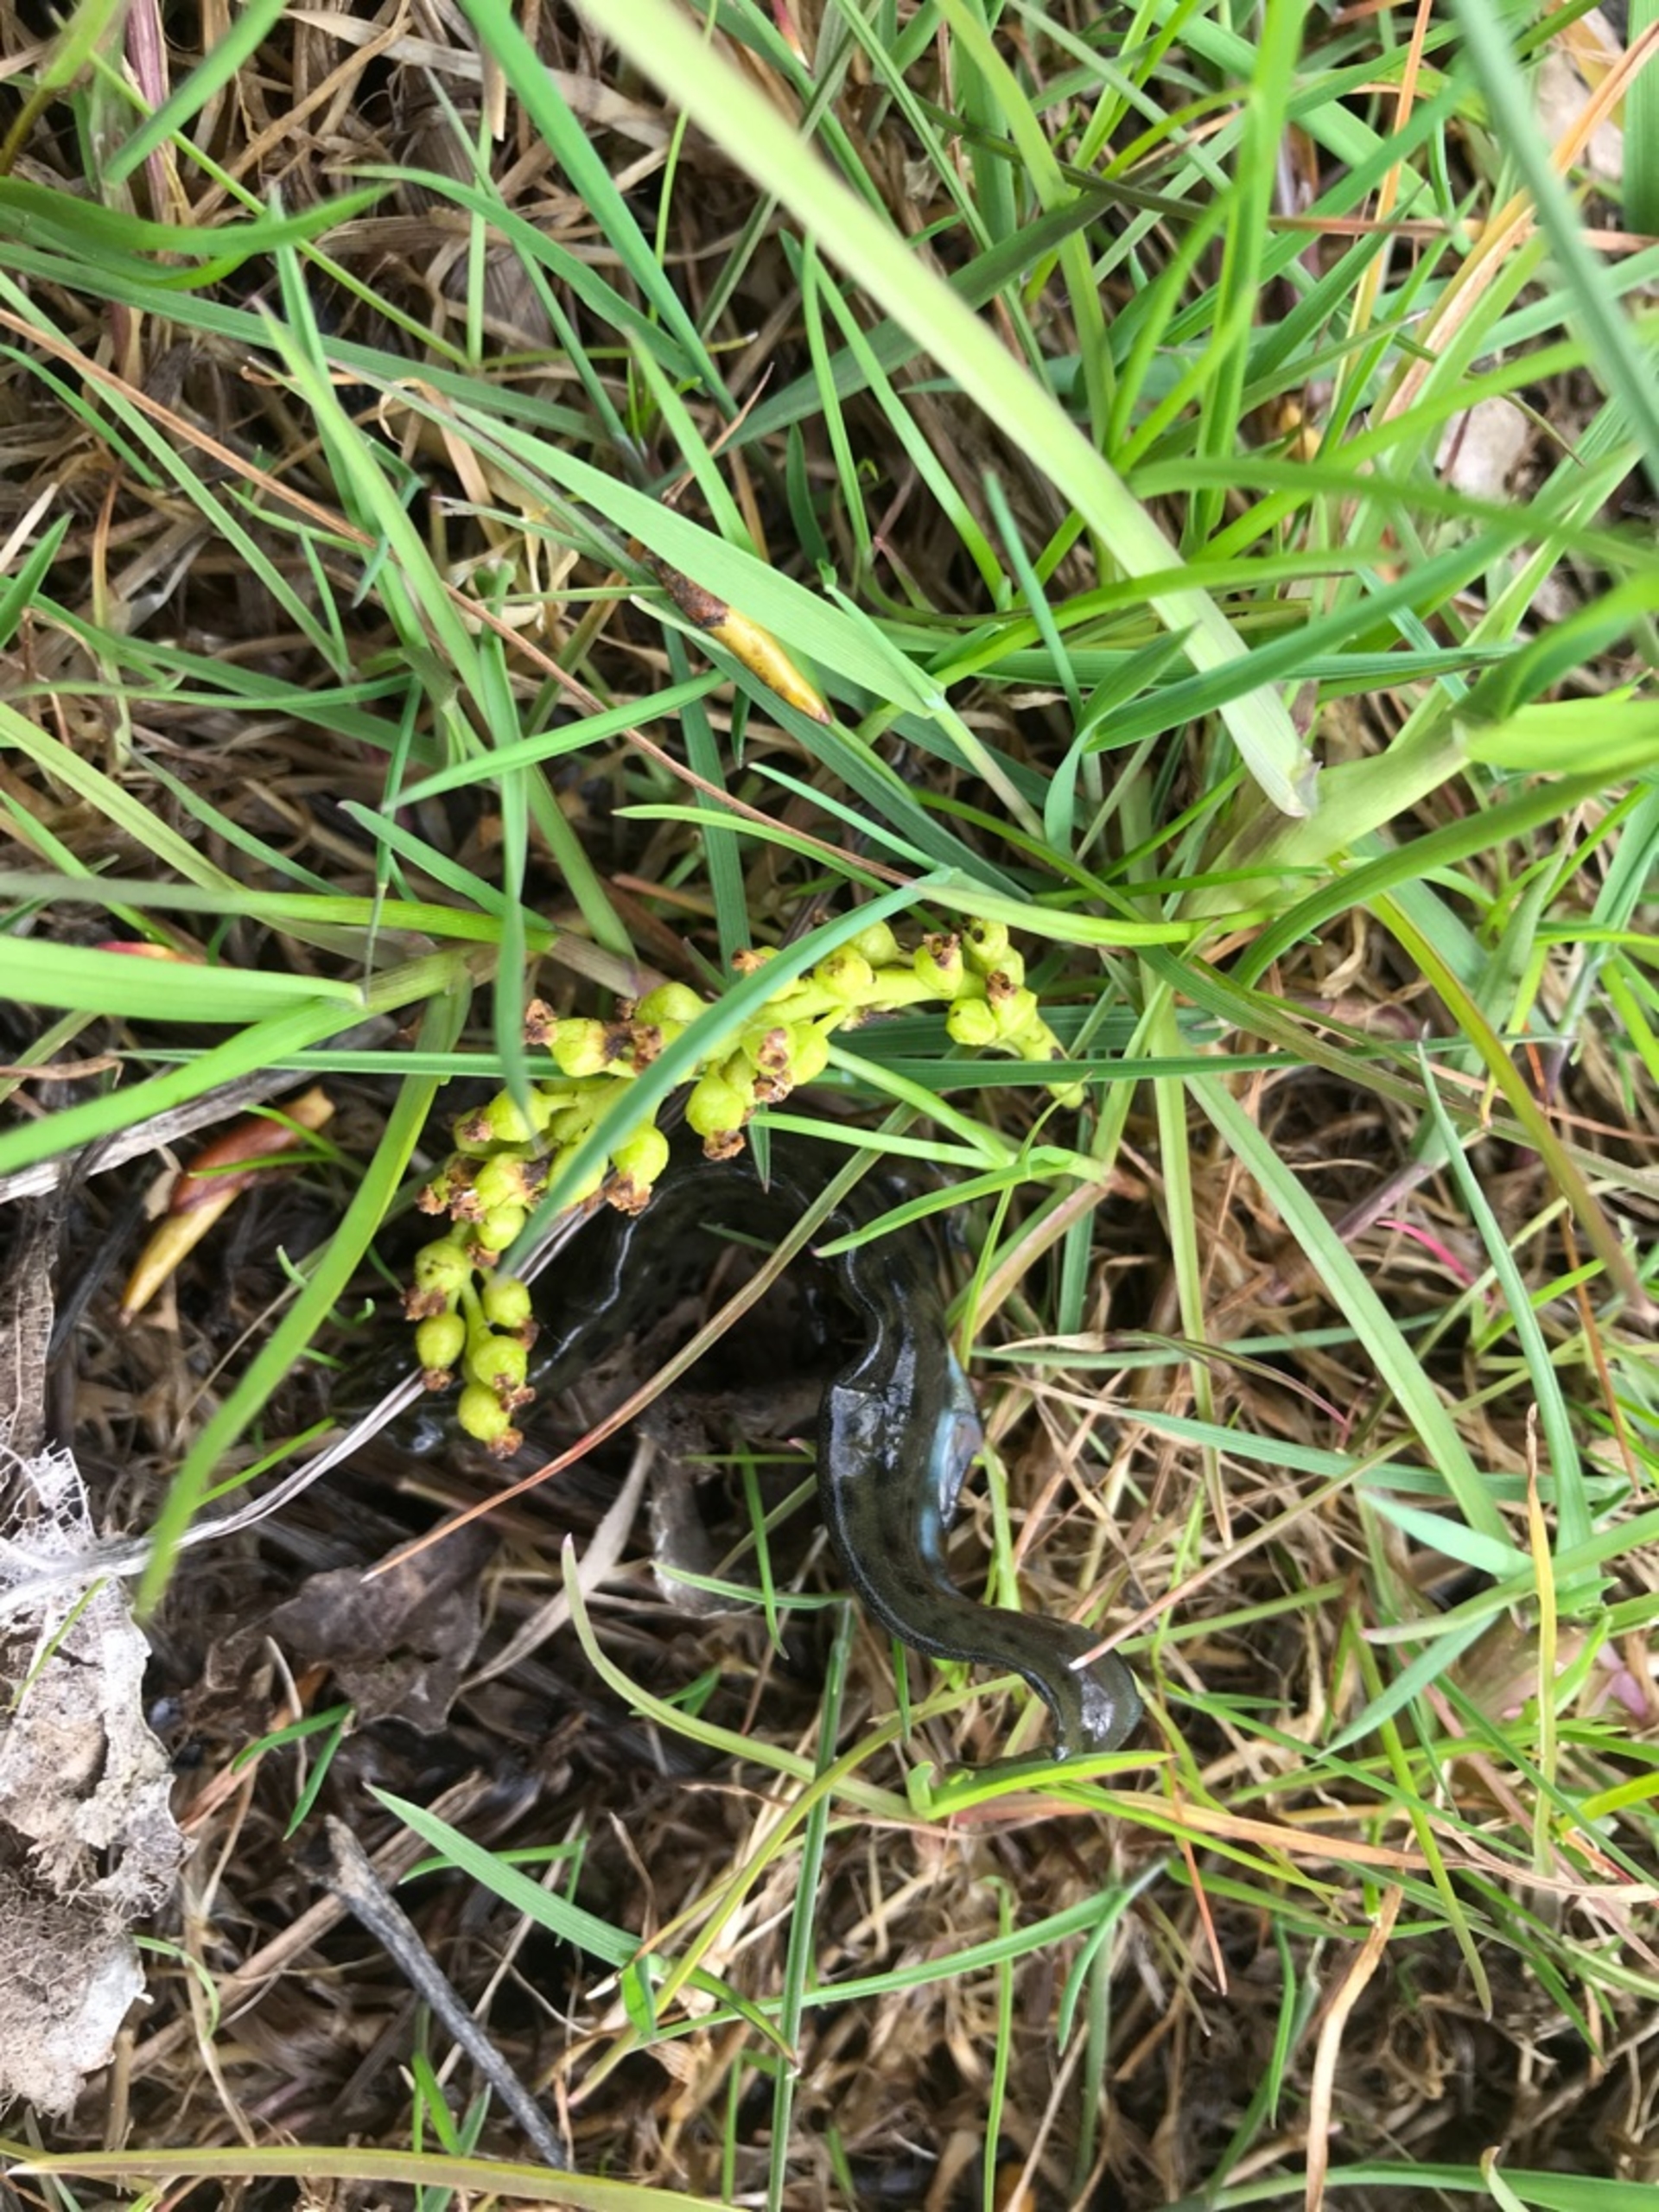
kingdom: Animalia
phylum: Chordata
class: Amphibia
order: Caudata
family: Salamandridae
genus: Lissotriton
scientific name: Lissotriton vulgaris
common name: Lille vandsalamander
